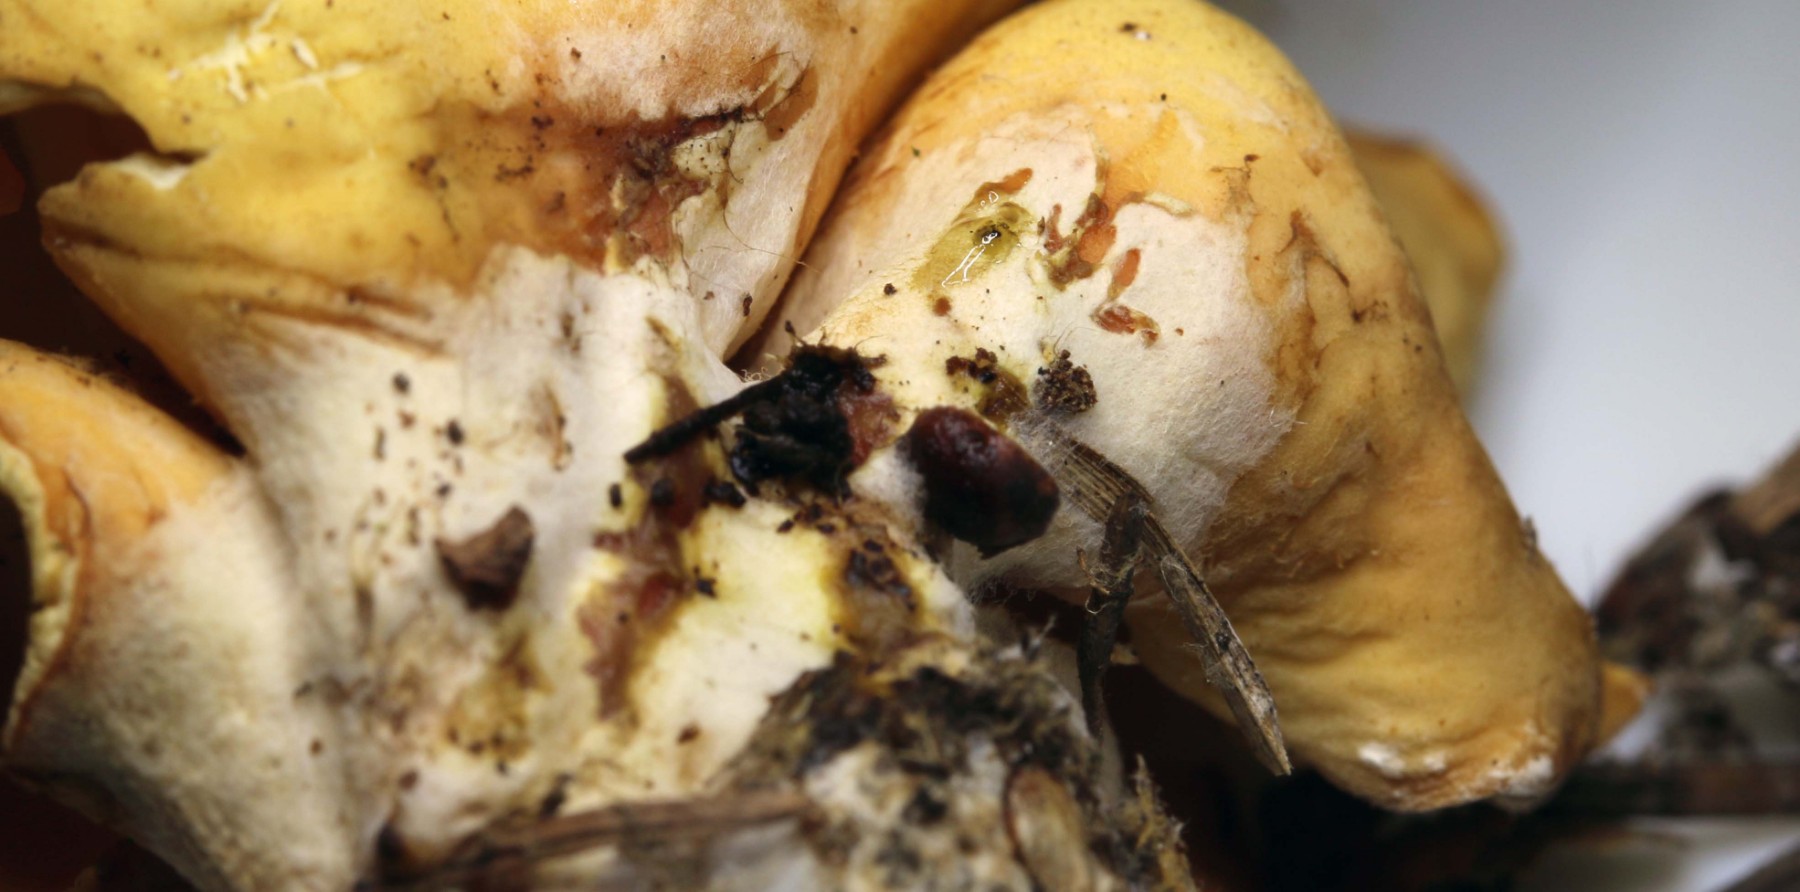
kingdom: Fungi
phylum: Ascomycota
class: Pezizomycetes
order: Pezizales
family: Otideaceae
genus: Otidea
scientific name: Otidea onotica
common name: æsel-ørebæger
